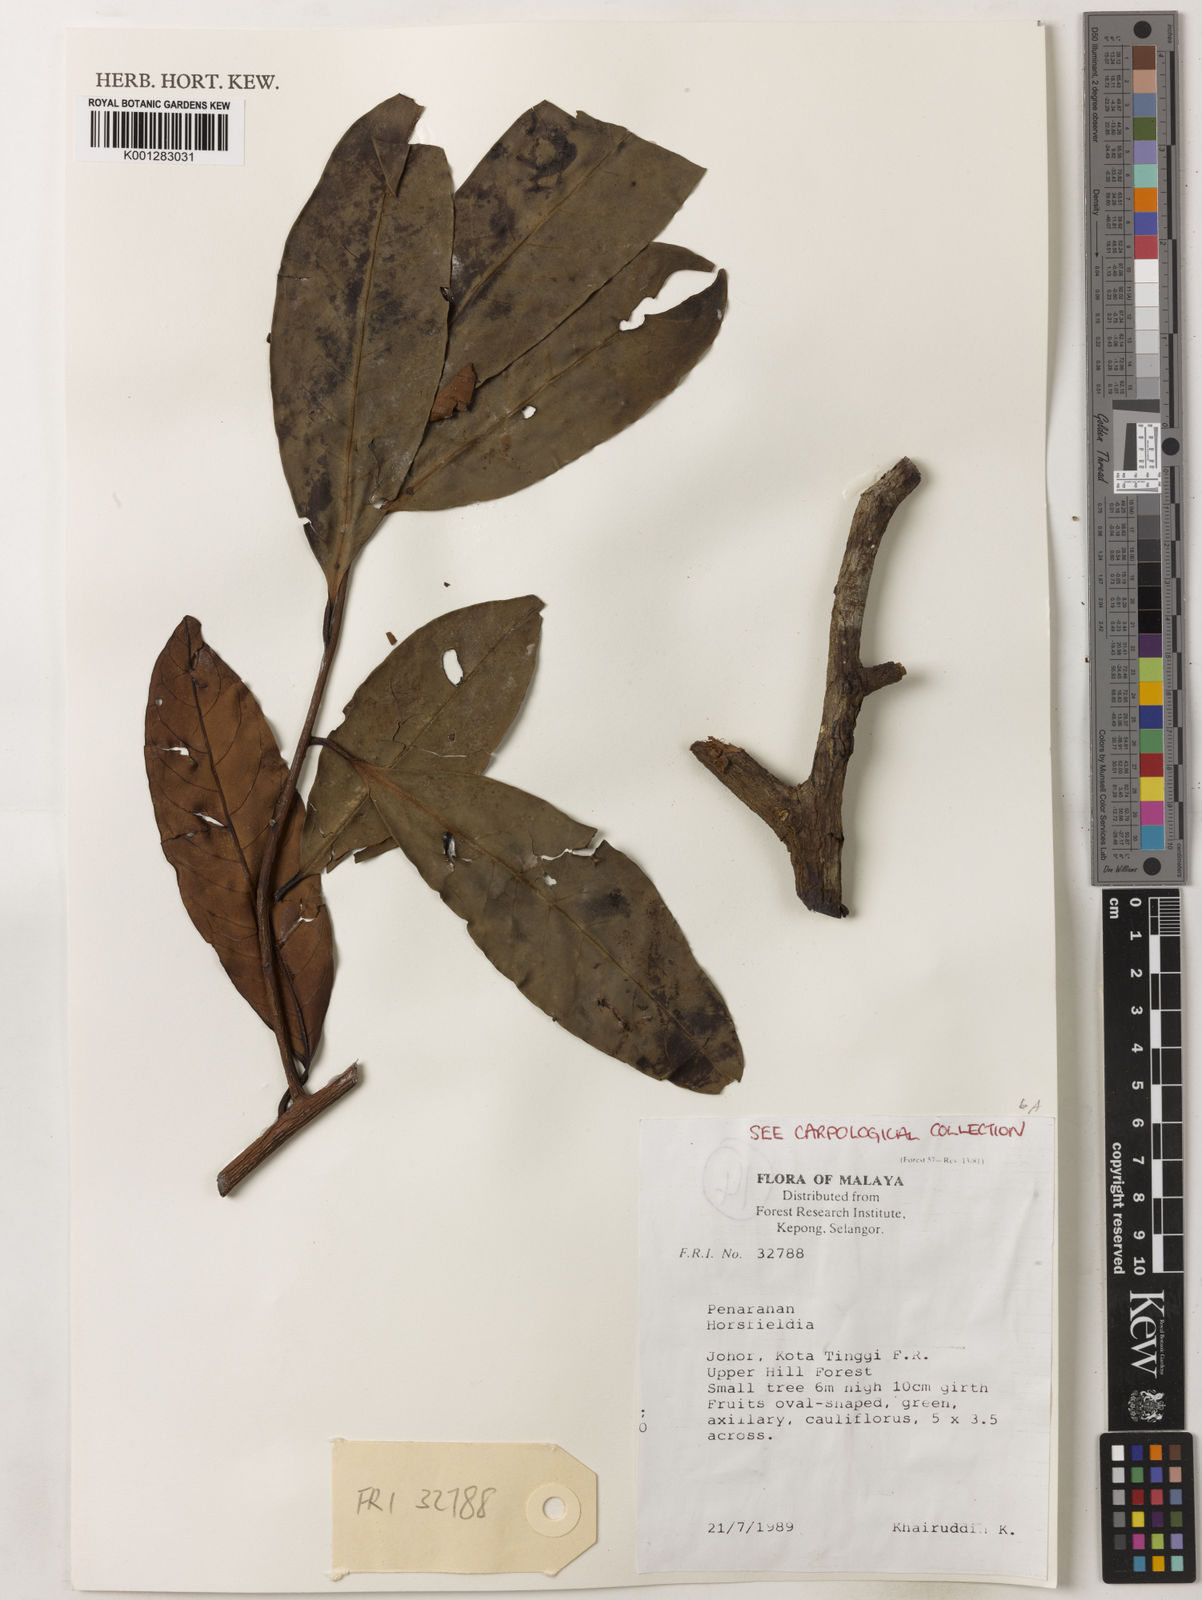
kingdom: Plantae
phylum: Tracheophyta
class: Magnoliopsida
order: Magnoliales
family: Myristicaceae
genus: Horsfieldia
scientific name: Horsfieldia
